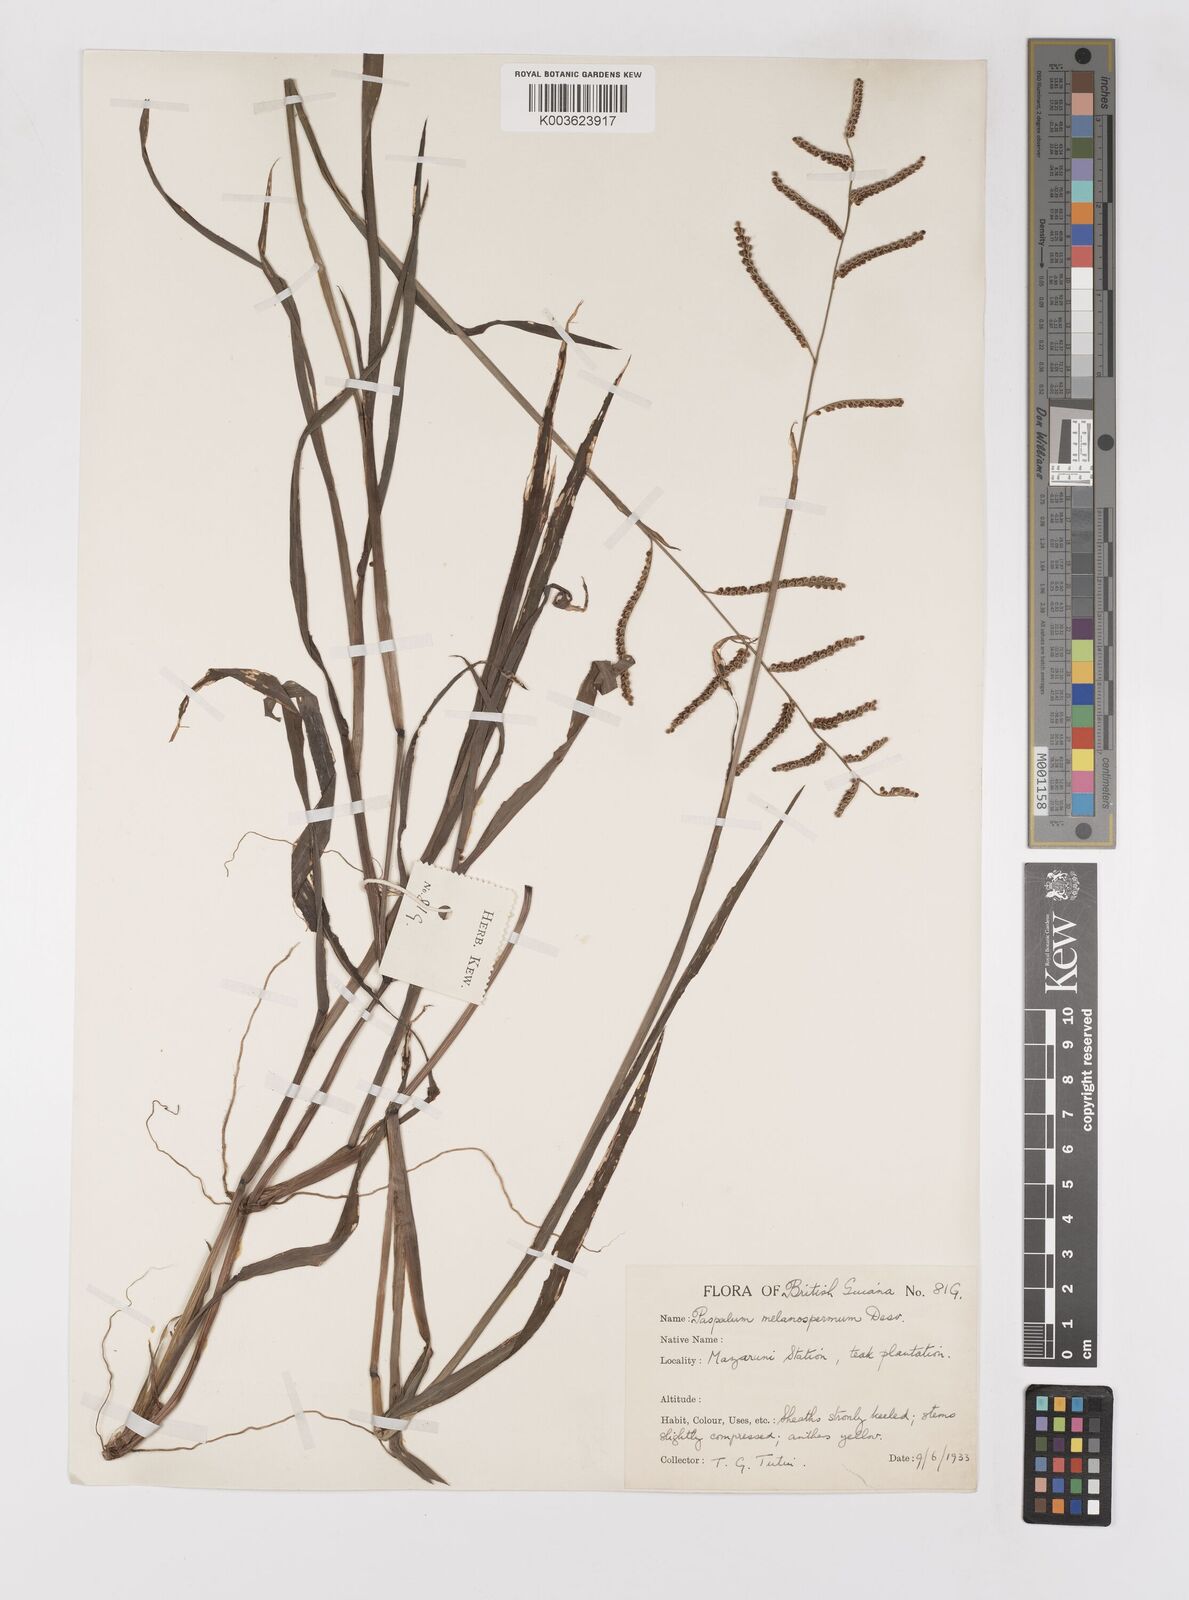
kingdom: Plantae
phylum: Tracheophyta
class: Liliopsida
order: Poales
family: Poaceae
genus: Paspalum
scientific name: Paspalum melanospermum
